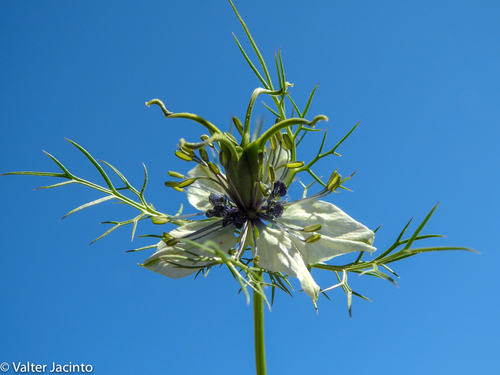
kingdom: Plantae
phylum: Tracheophyta
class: Magnoliopsida
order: Ranunculales
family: Ranunculaceae
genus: Nigella
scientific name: Nigella damascena
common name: Love-in-a-mist
